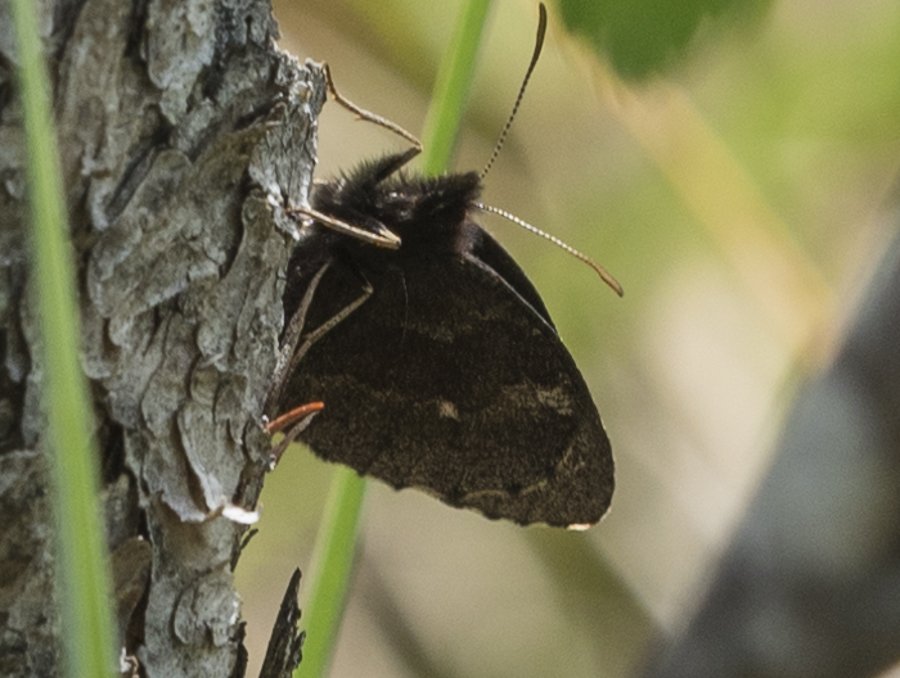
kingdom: Animalia
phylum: Arthropoda
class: Insecta
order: Lepidoptera
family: Nymphalidae
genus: Erebia
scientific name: Erebia disa
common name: Taiga Alpine
